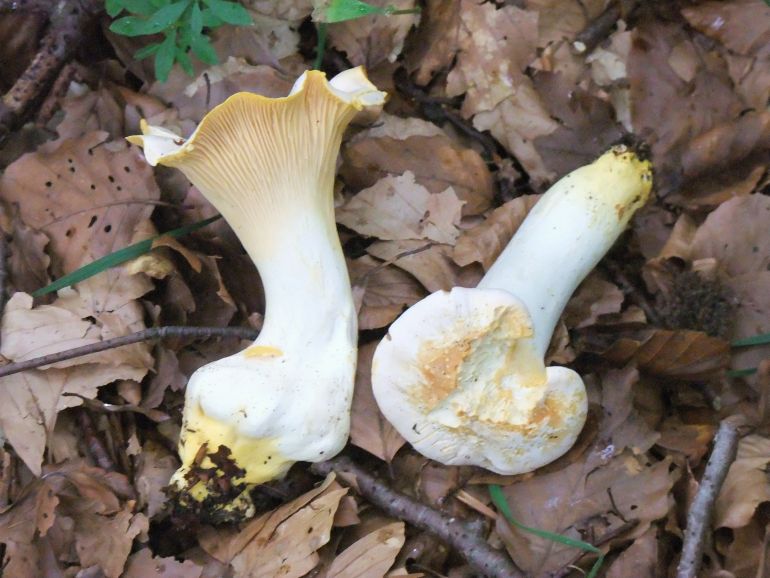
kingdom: Fungi
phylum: Basidiomycota
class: Agaricomycetes
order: Cantharellales
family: Hydnaceae
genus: Cantharellus
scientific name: Cantharellus pallens
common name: bleg kantarel
